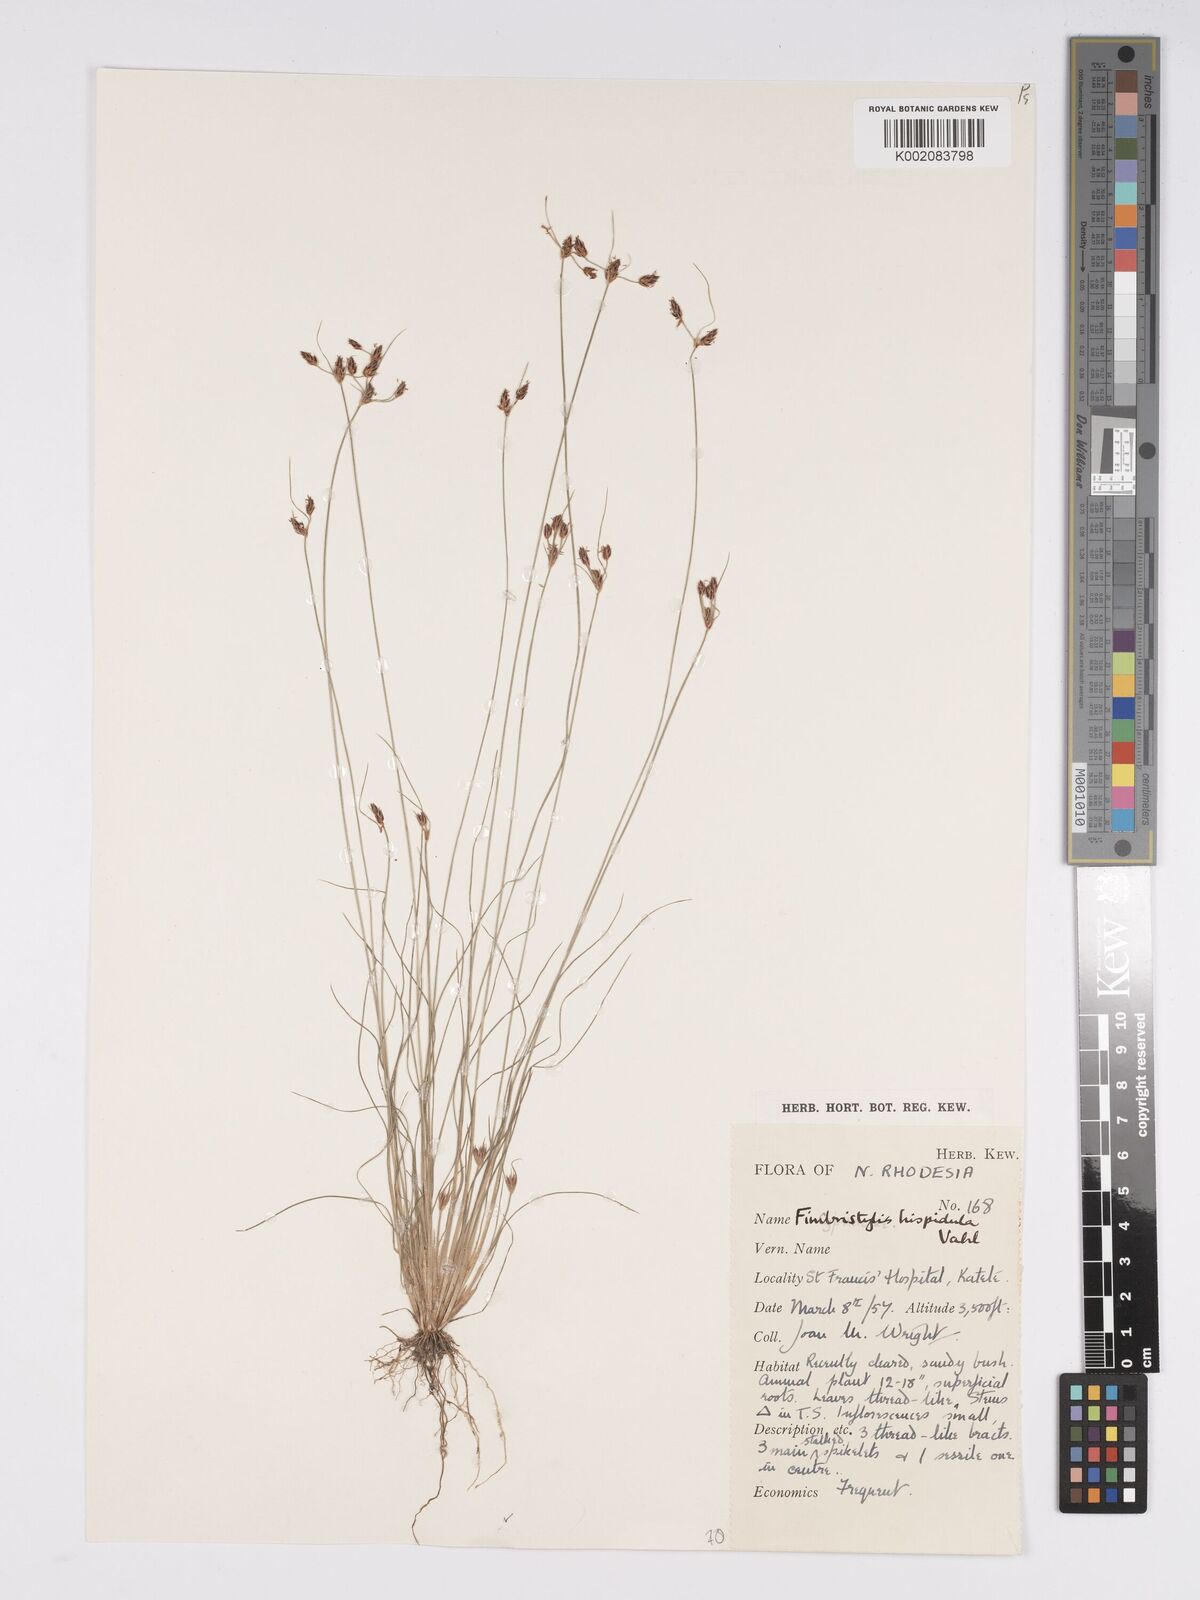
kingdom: Plantae
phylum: Tracheophyta
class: Liliopsida
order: Poales
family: Cyperaceae
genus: Bulbostylis
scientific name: Bulbostylis hispidula
